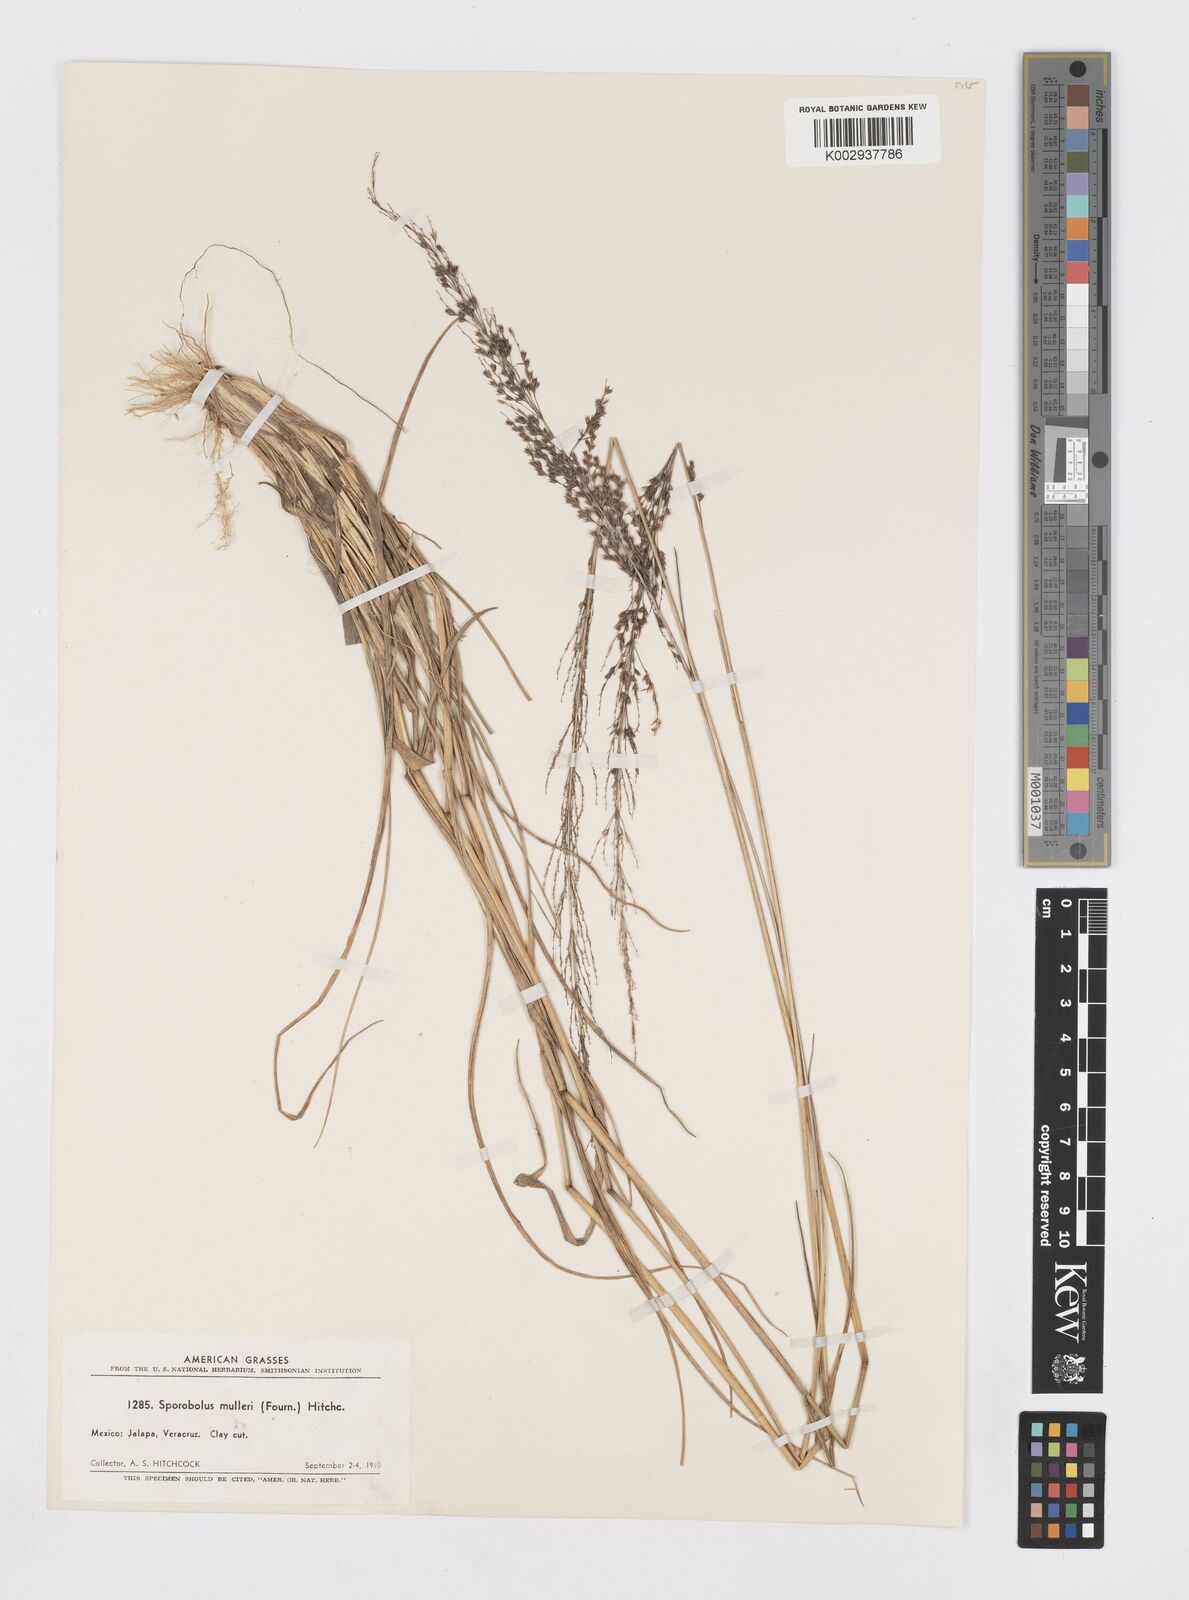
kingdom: Plantae
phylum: Tracheophyta
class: Liliopsida
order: Poales
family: Poaceae
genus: Sporobolus
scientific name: Sporobolus purpurascens
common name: Purple dropseed
